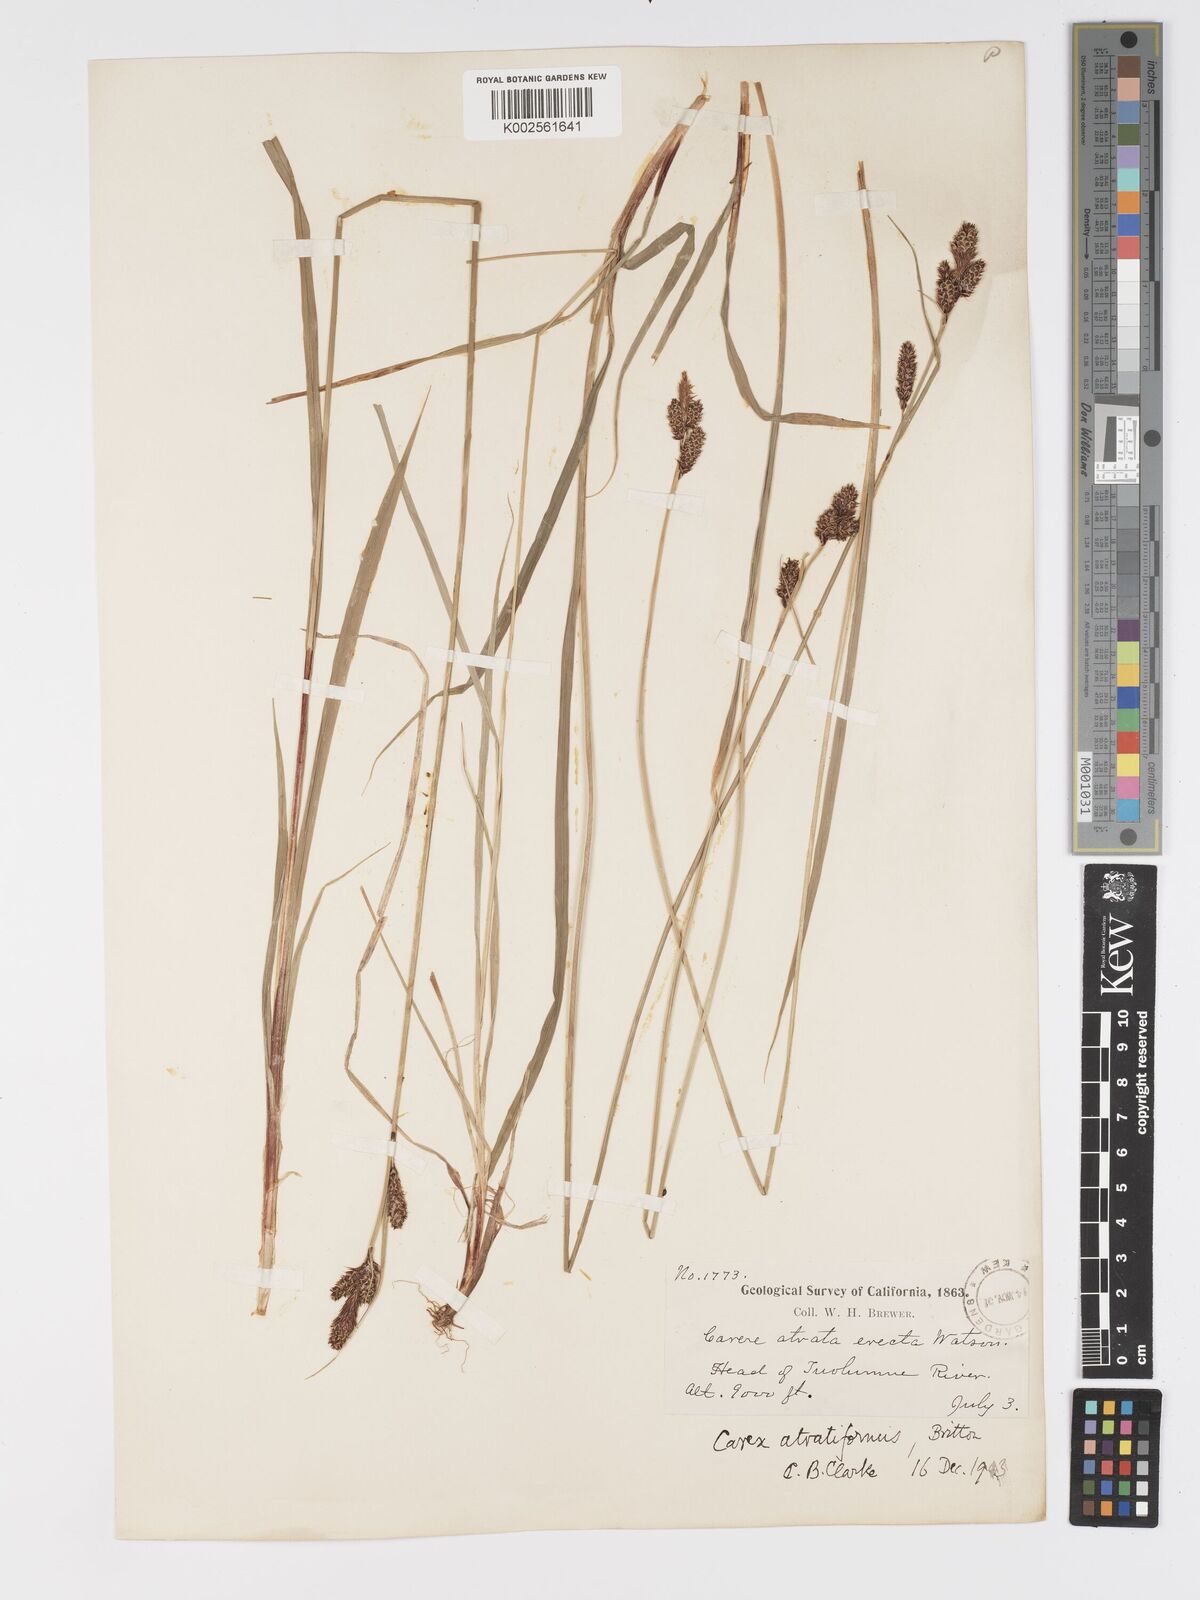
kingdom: Plantae
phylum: Tracheophyta
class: Liliopsida
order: Poales
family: Cyperaceae
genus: Carex
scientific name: Carex heteroneura
